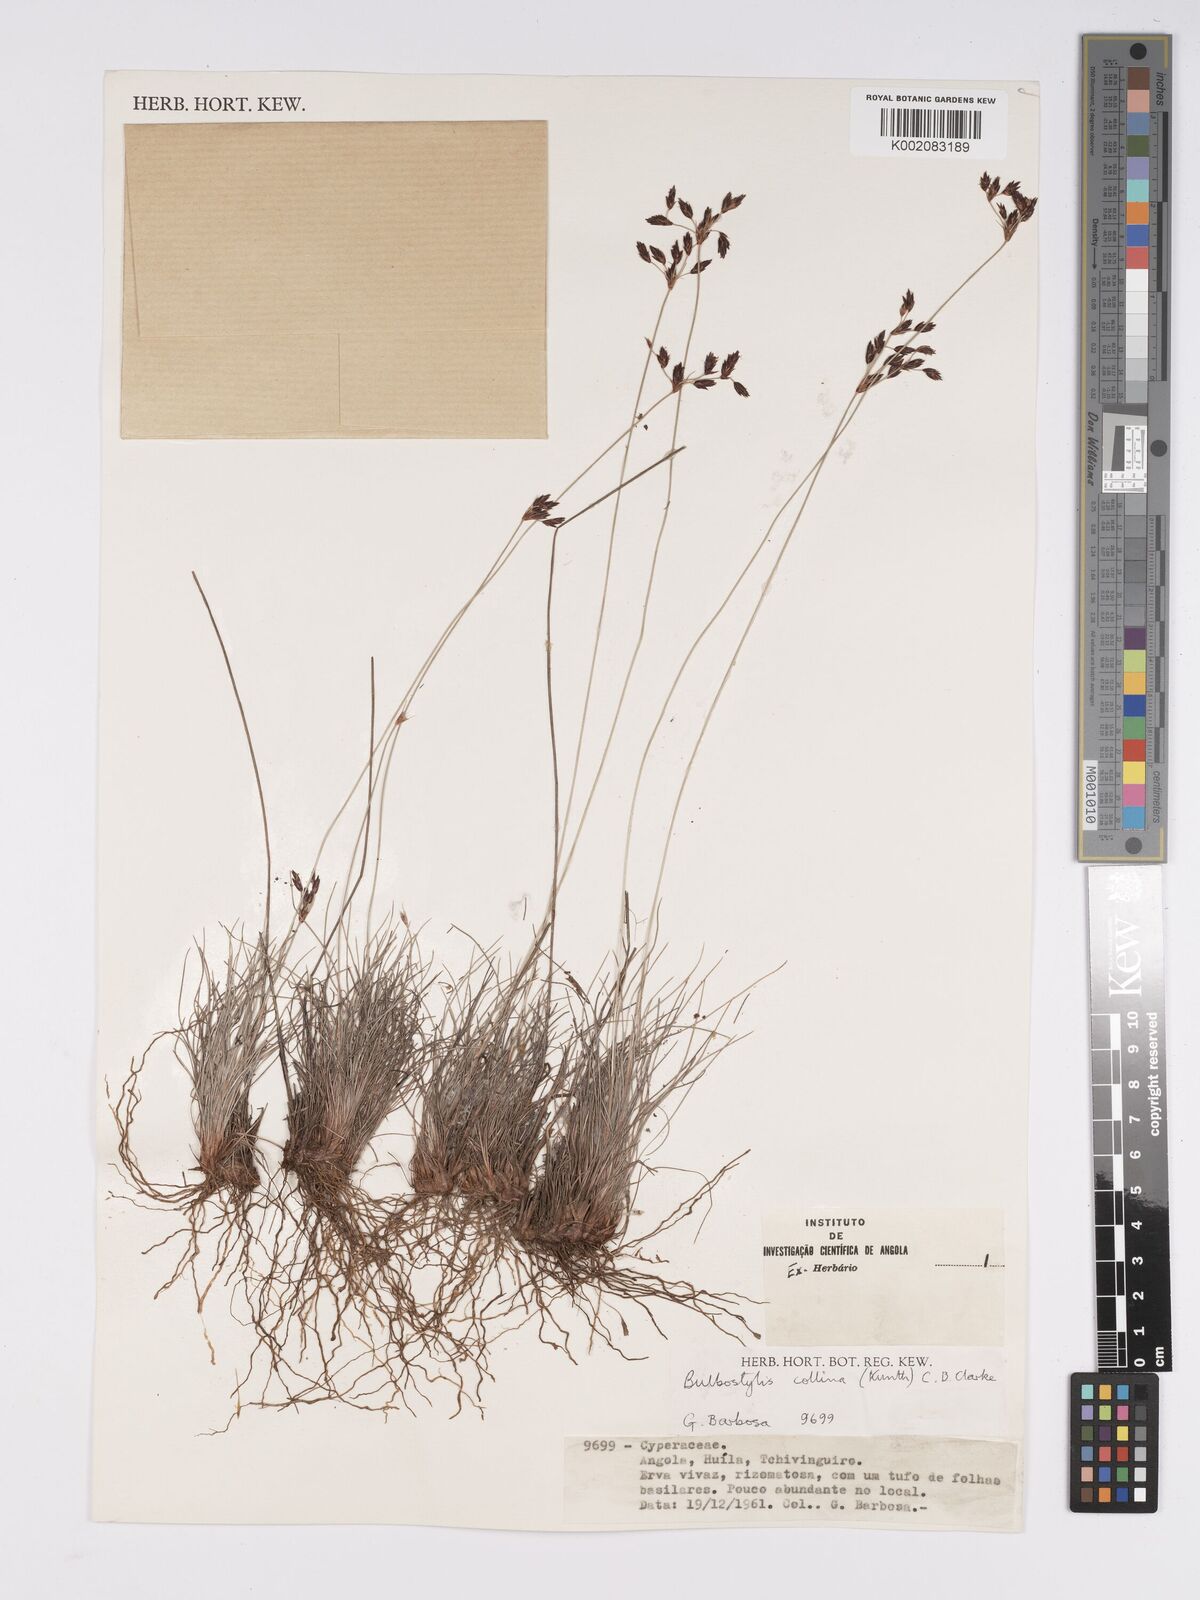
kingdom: Plantae
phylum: Tracheophyta
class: Liliopsida
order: Poales
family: Cyperaceae
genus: Bulbostylis
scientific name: Bulbostylis contexta
